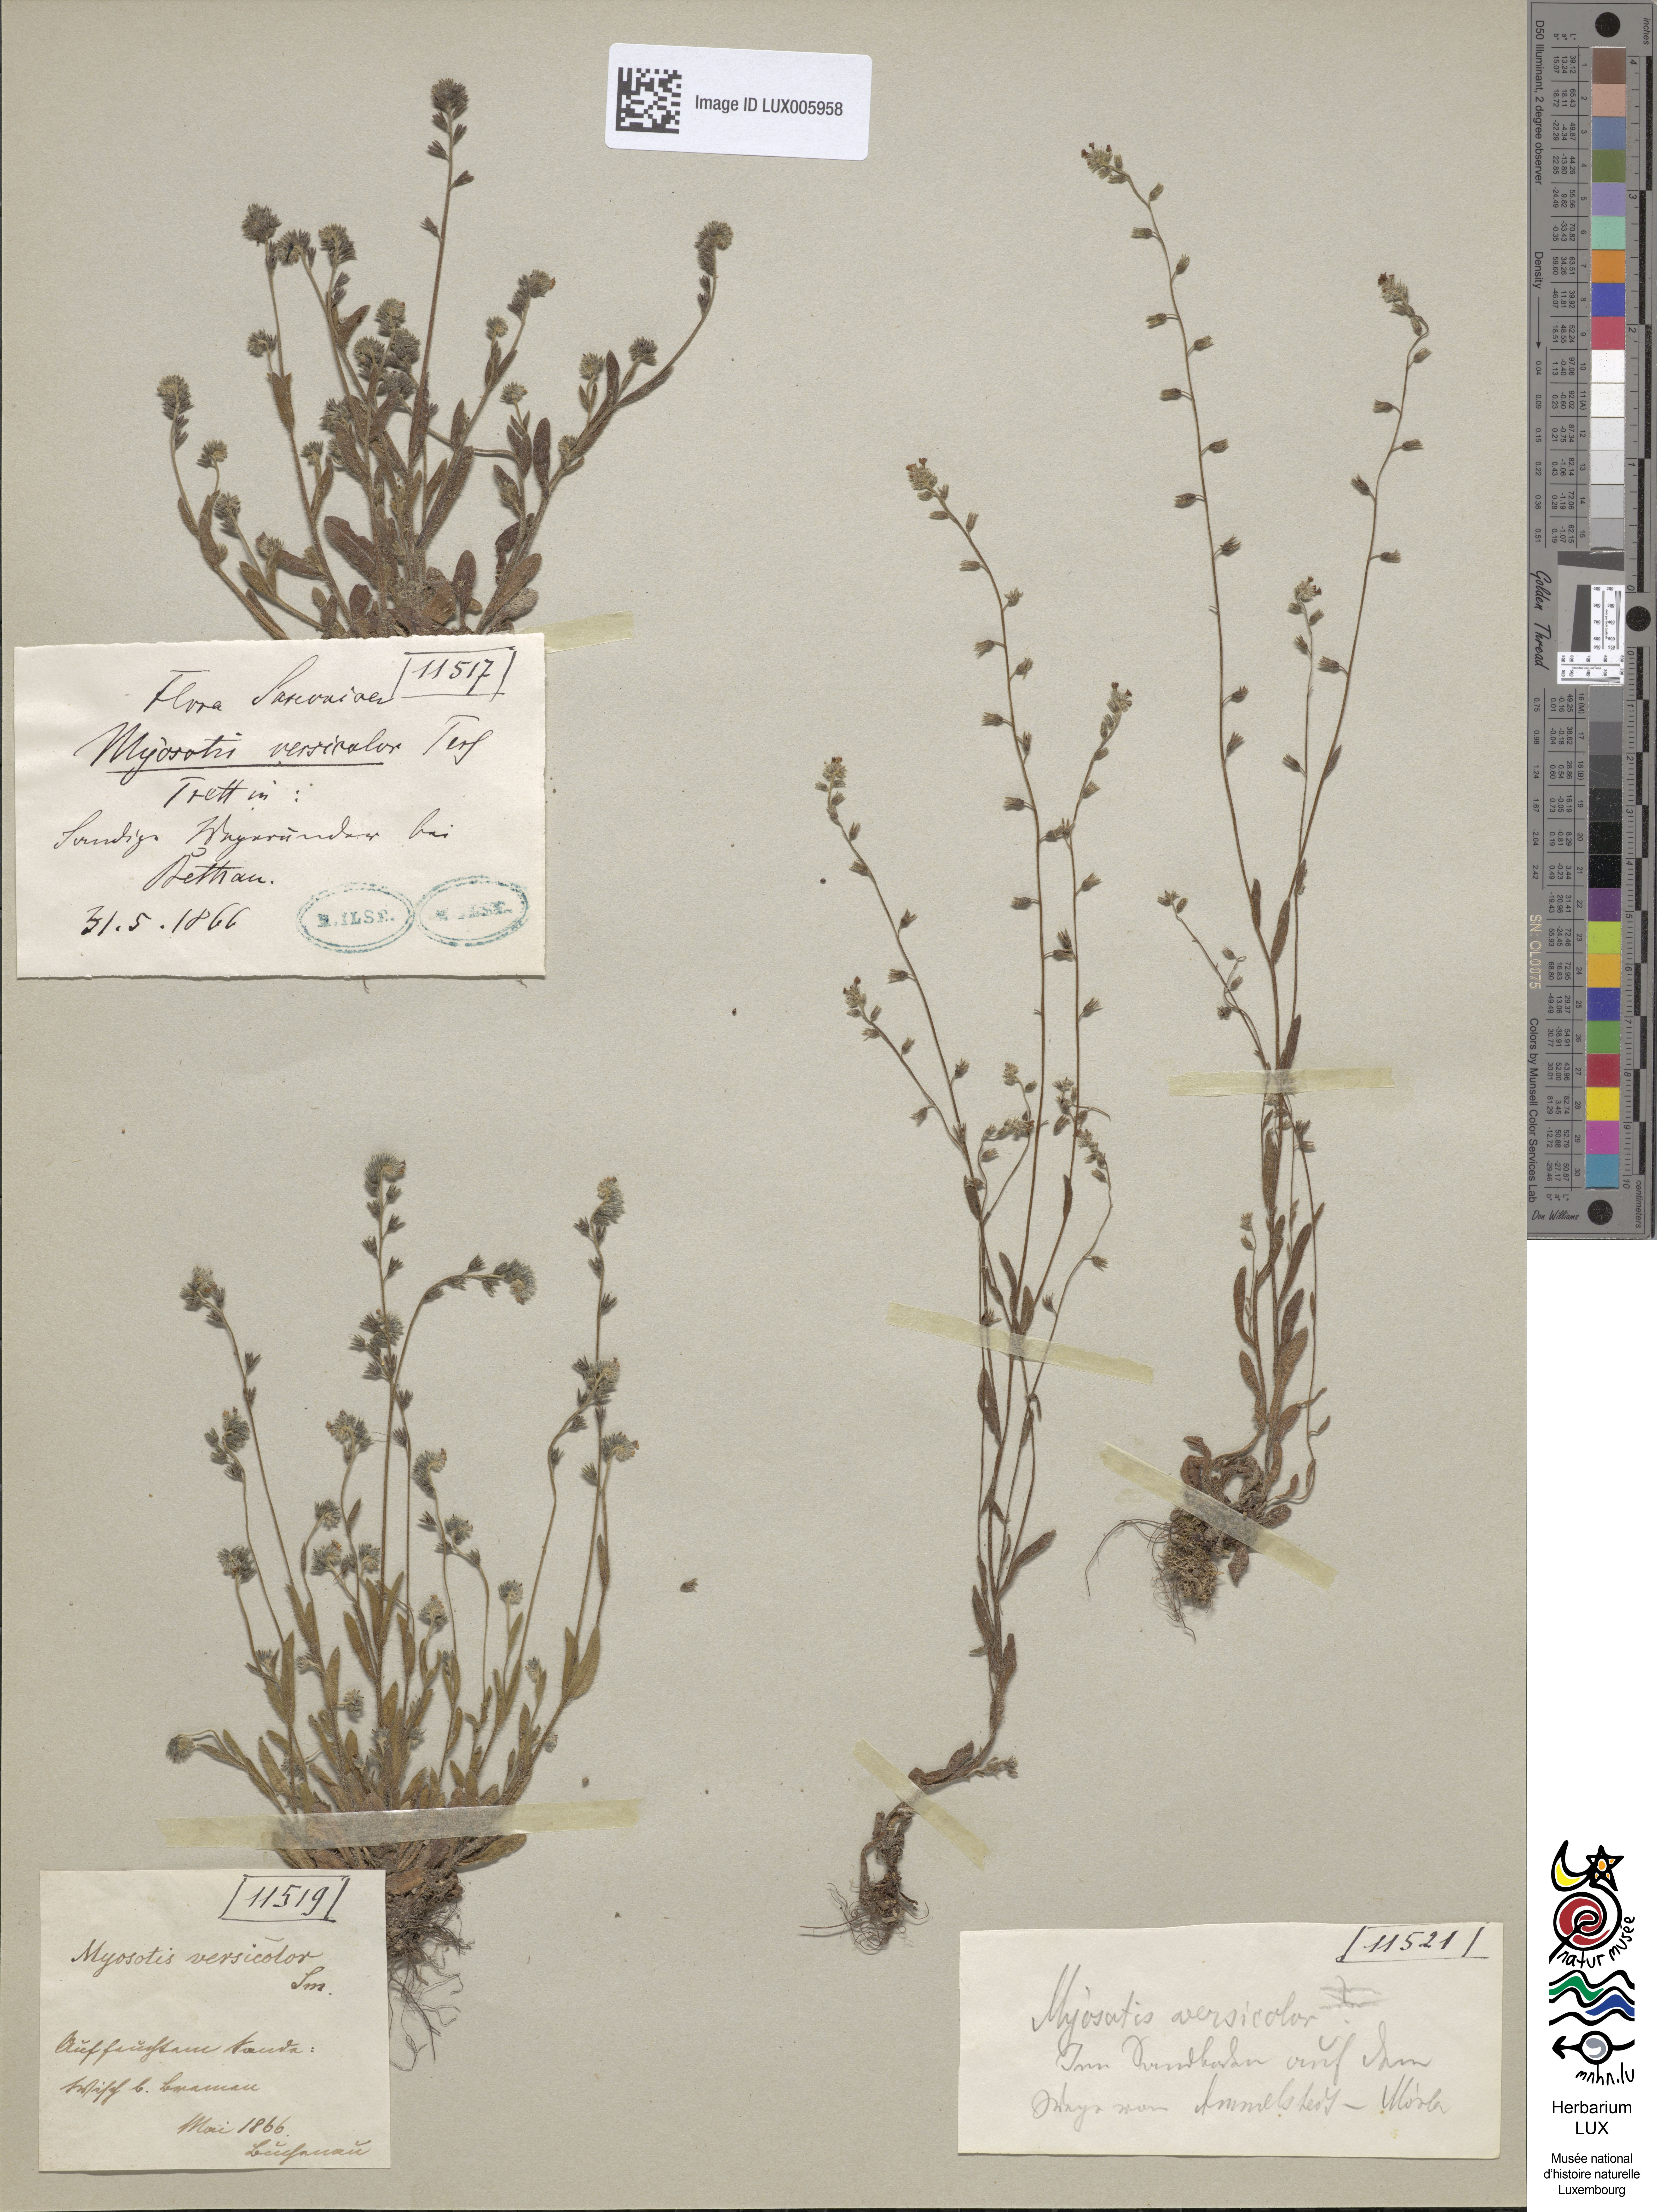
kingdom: Plantae
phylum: Tracheophyta
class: Magnoliopsida
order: Boraginales
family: Boraginaceae
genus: Myosotis
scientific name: Myosotis discolor
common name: Changing forget-me-not
